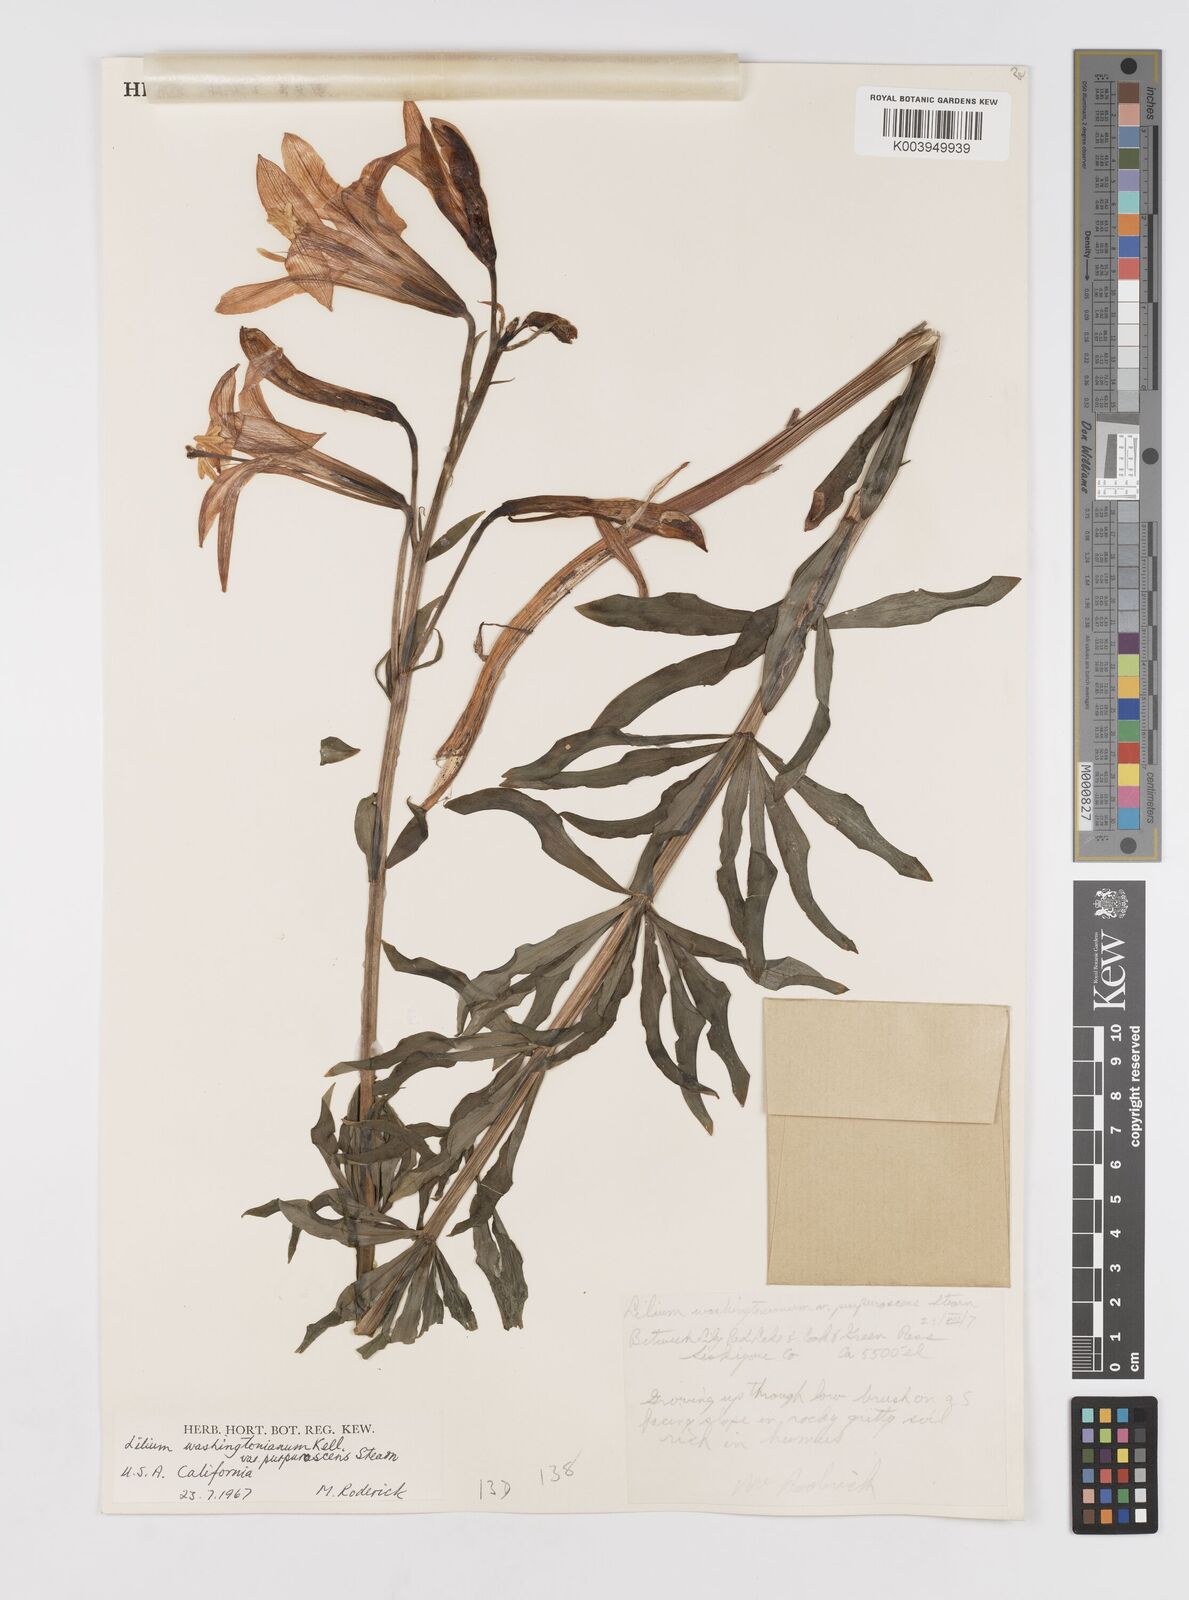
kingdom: Plantae
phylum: Tracheophyta
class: Liliopsida
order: Liliales
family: Liliaceae
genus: Lilium
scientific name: Lilium washingtonianum
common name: Washington lily
